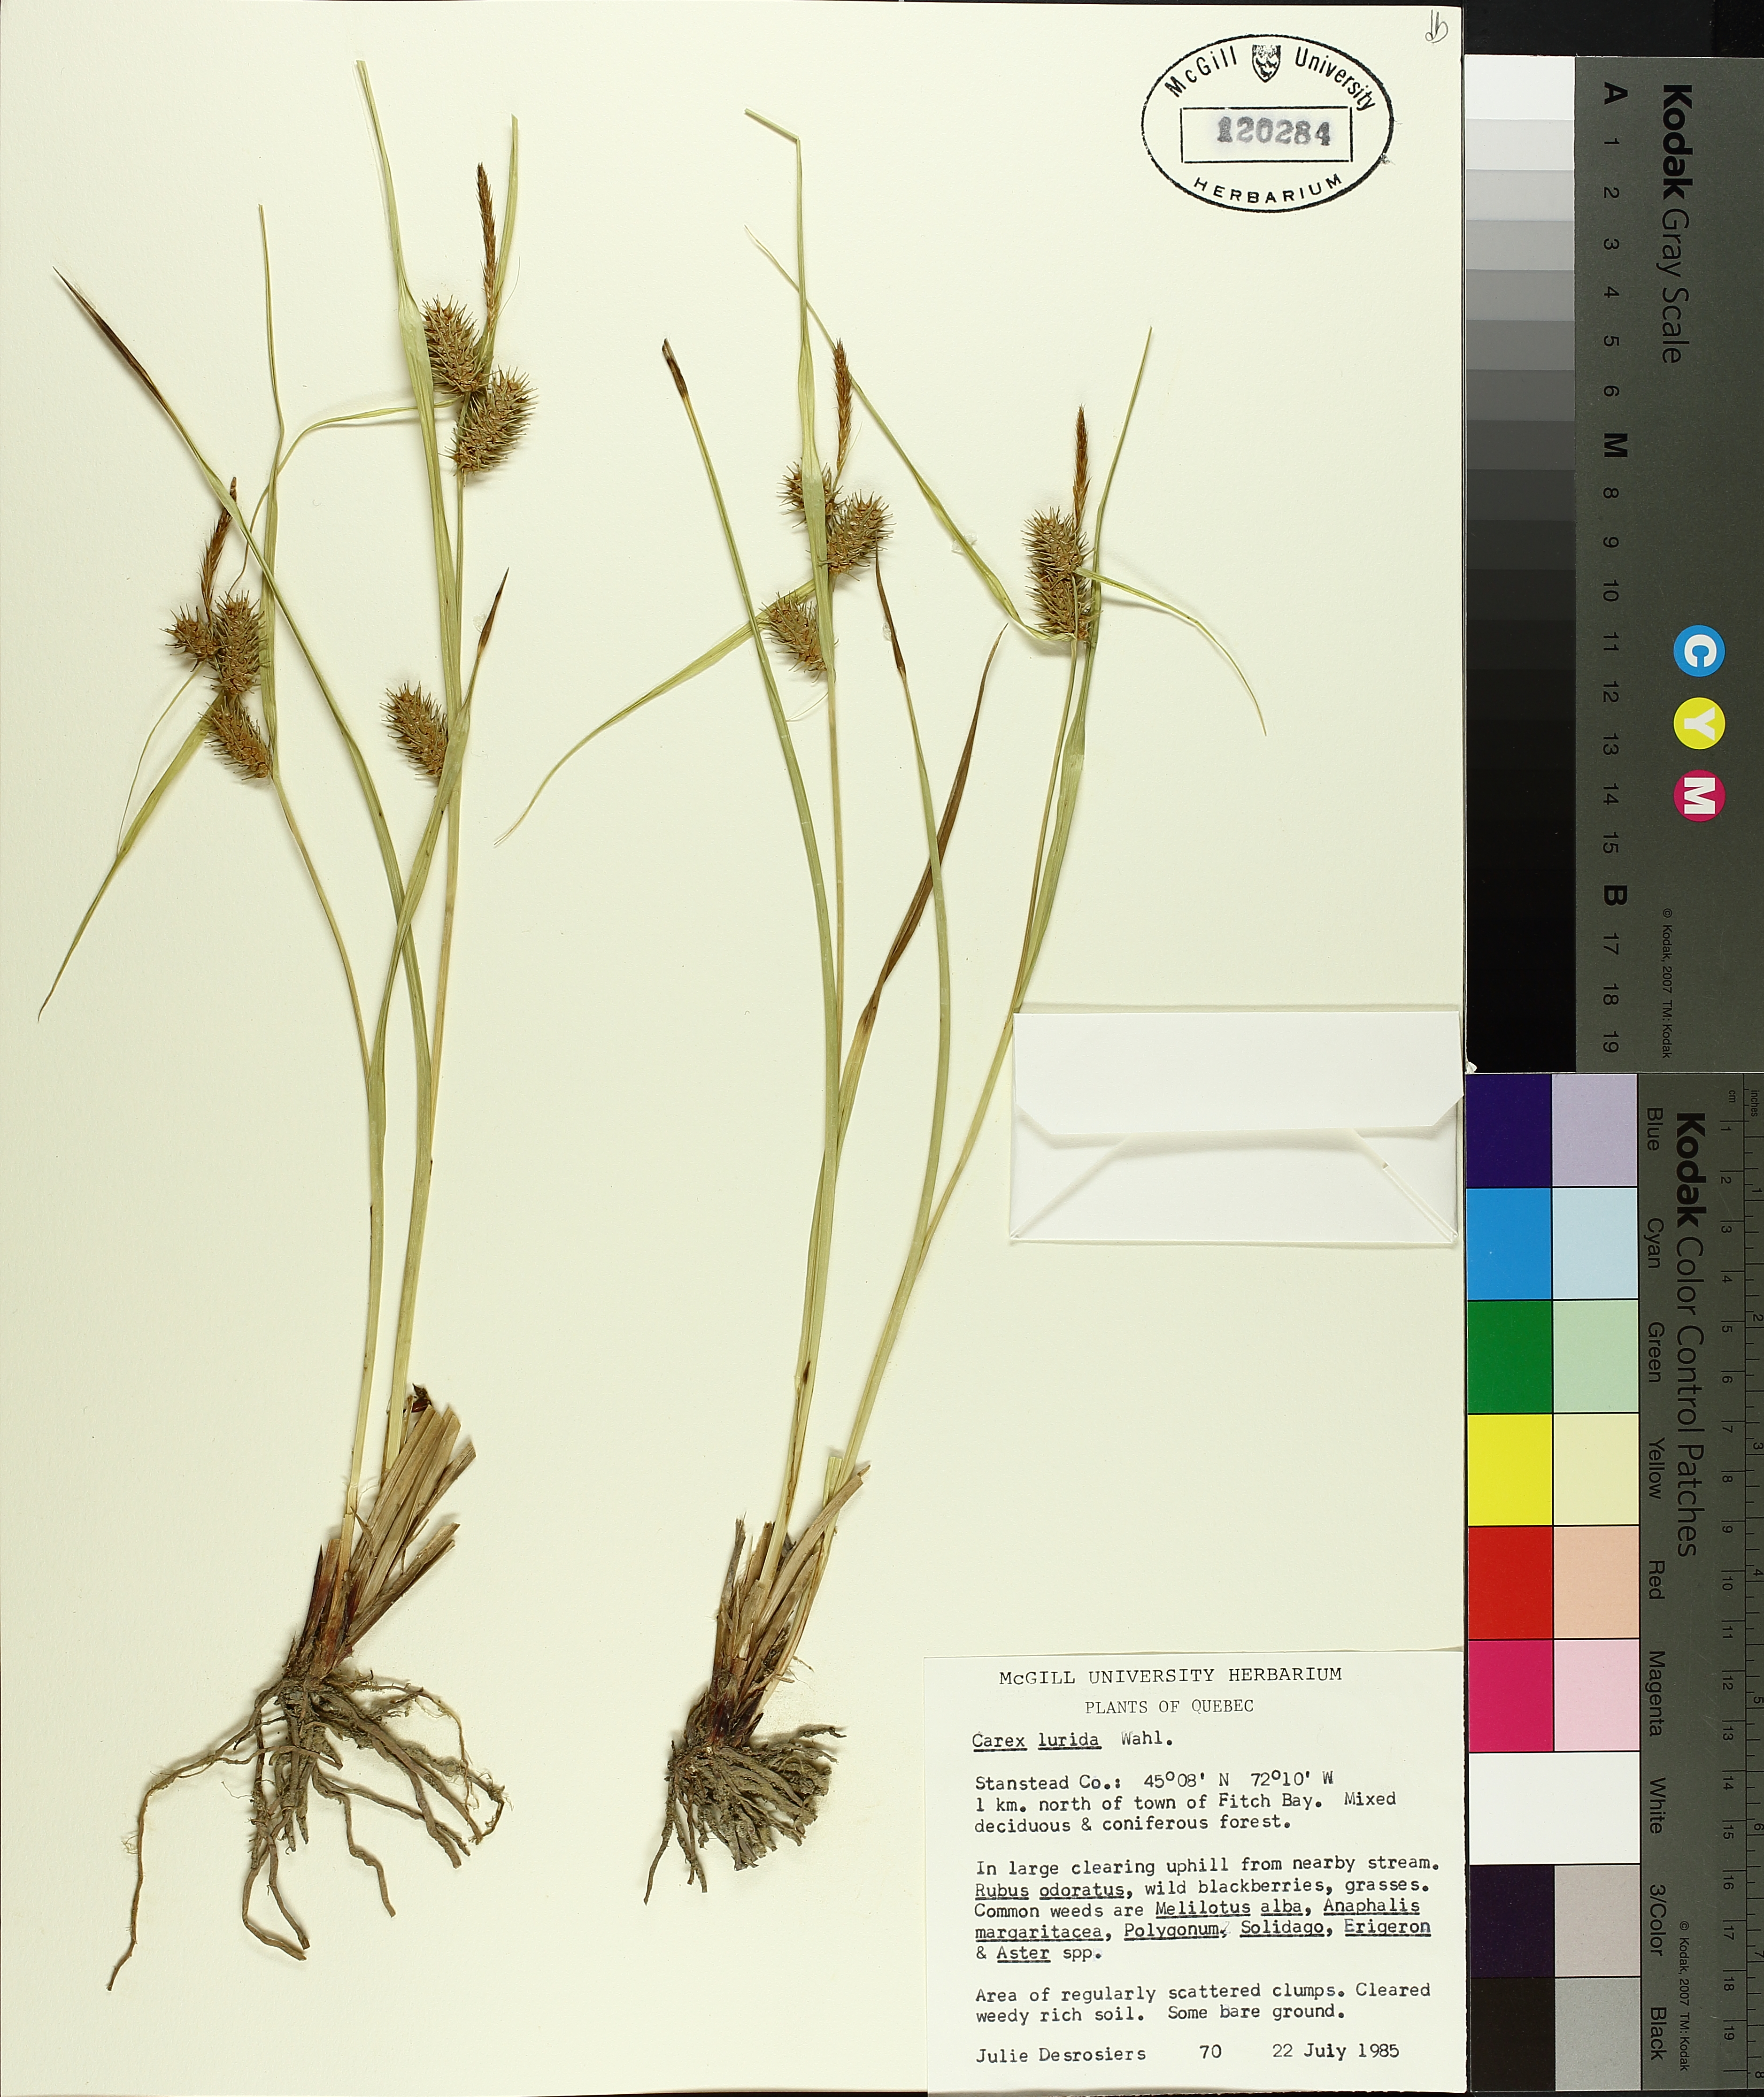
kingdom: Plantae
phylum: Tracheophyta
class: Liliopsida
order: Poales
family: Cyperaceae
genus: Carex
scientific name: Carex lurida
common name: Sallow sedge
